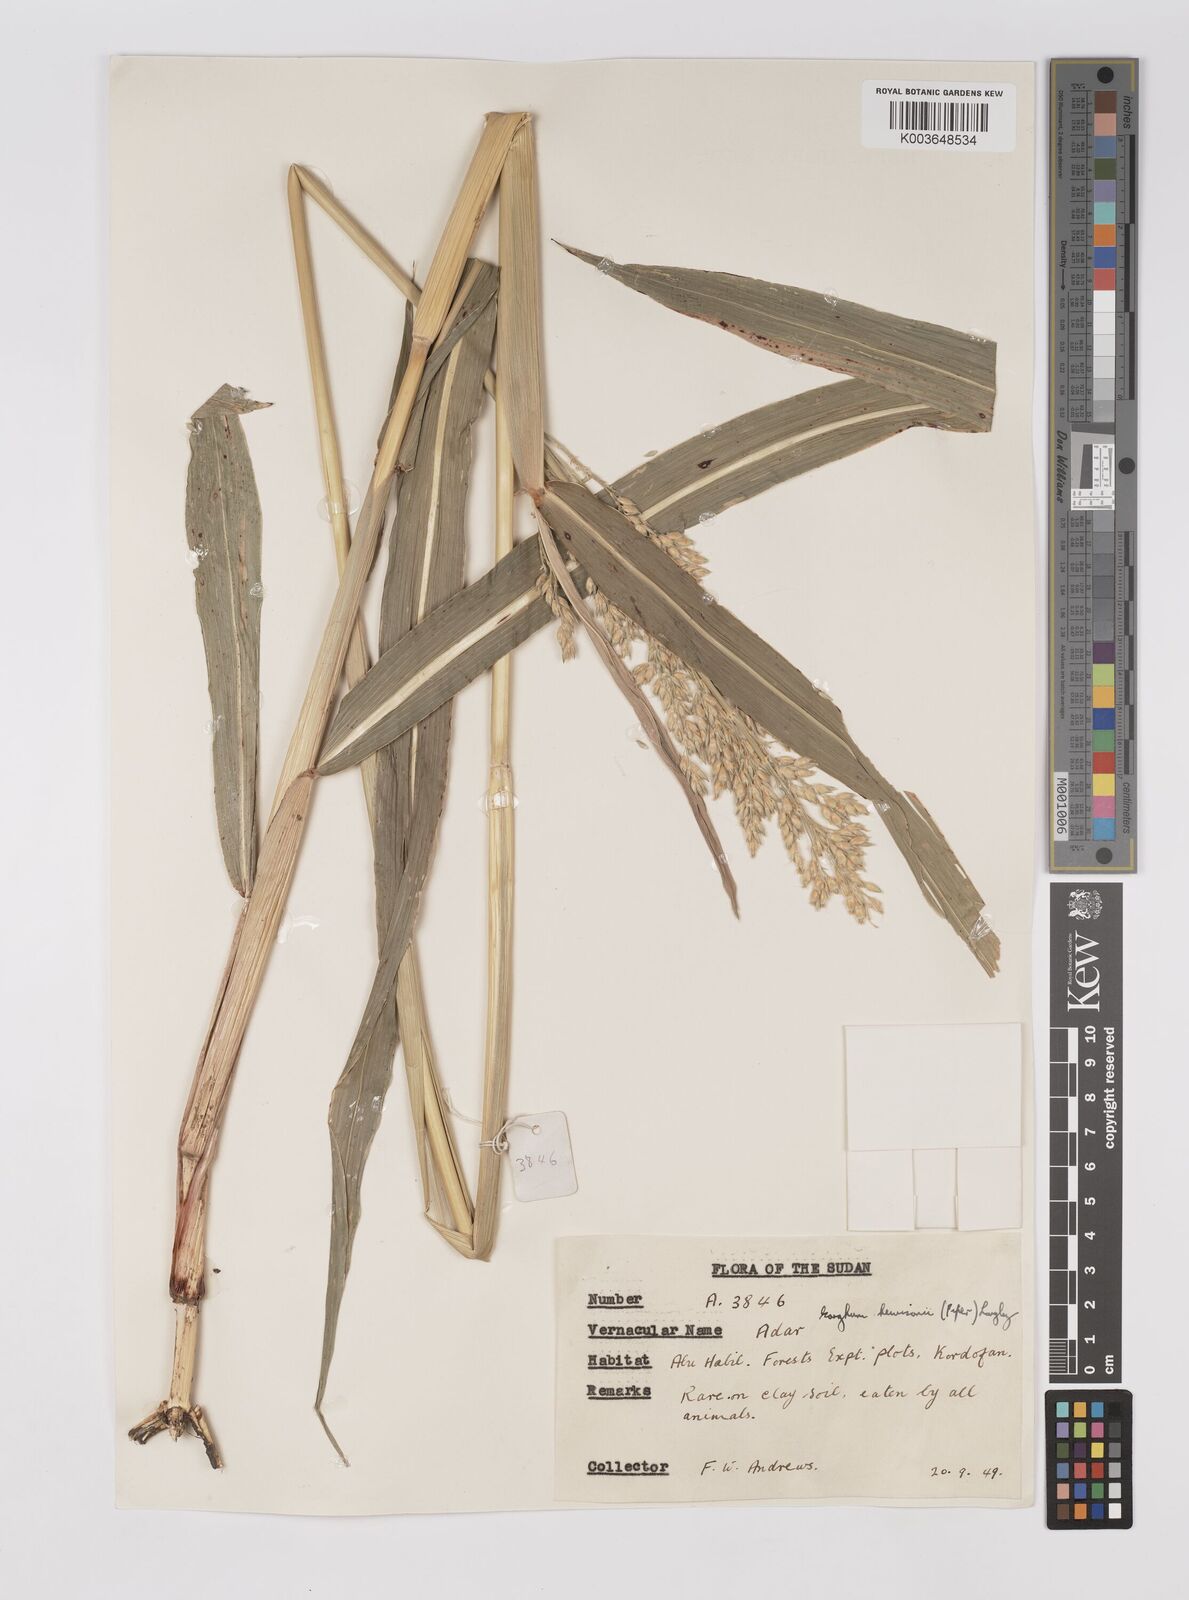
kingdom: Plantae
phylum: Tracheophyta
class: Liliopsida
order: Poales
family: Poaceae
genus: Sorghum
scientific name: Sorghum drummondii
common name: Sudangrass
